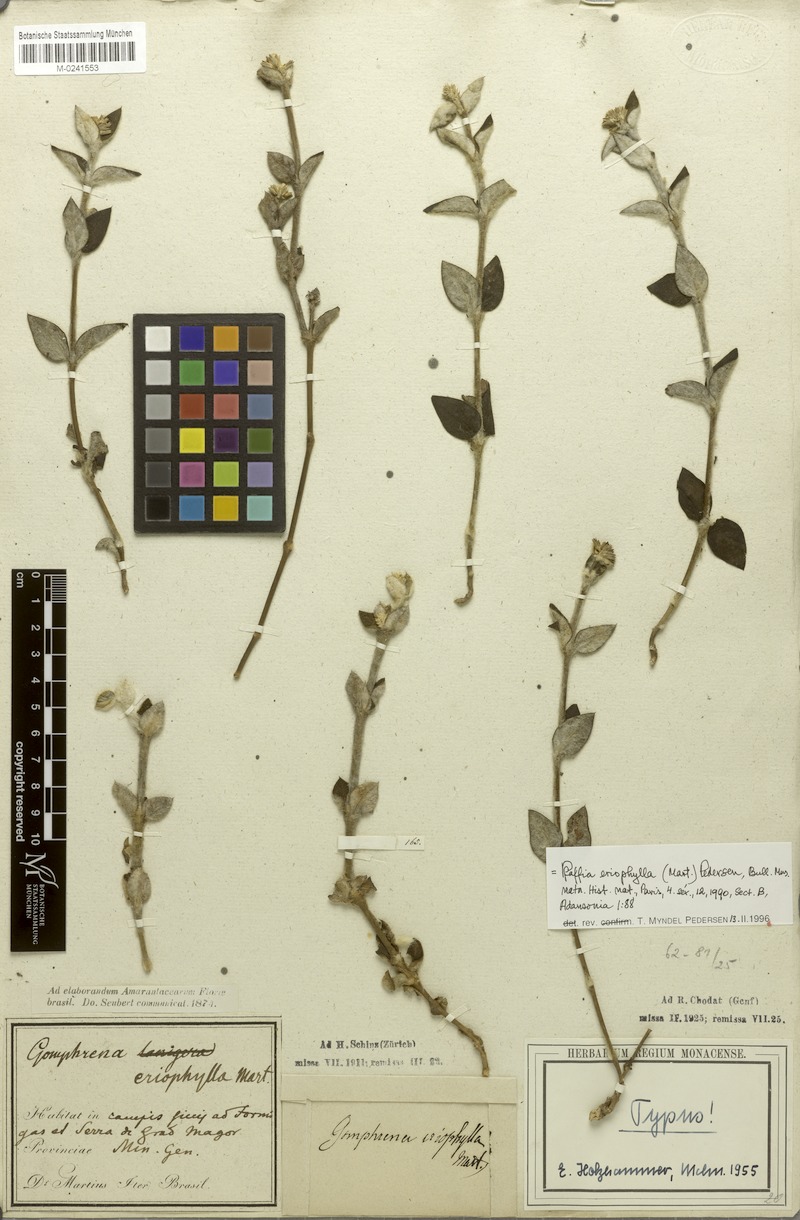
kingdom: Plantae
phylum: Tracheophyta
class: Magnoliopsida
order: Caryophyllales
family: Amaranthaceae
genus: Gomphrena
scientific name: Gomphrena eriophylla
